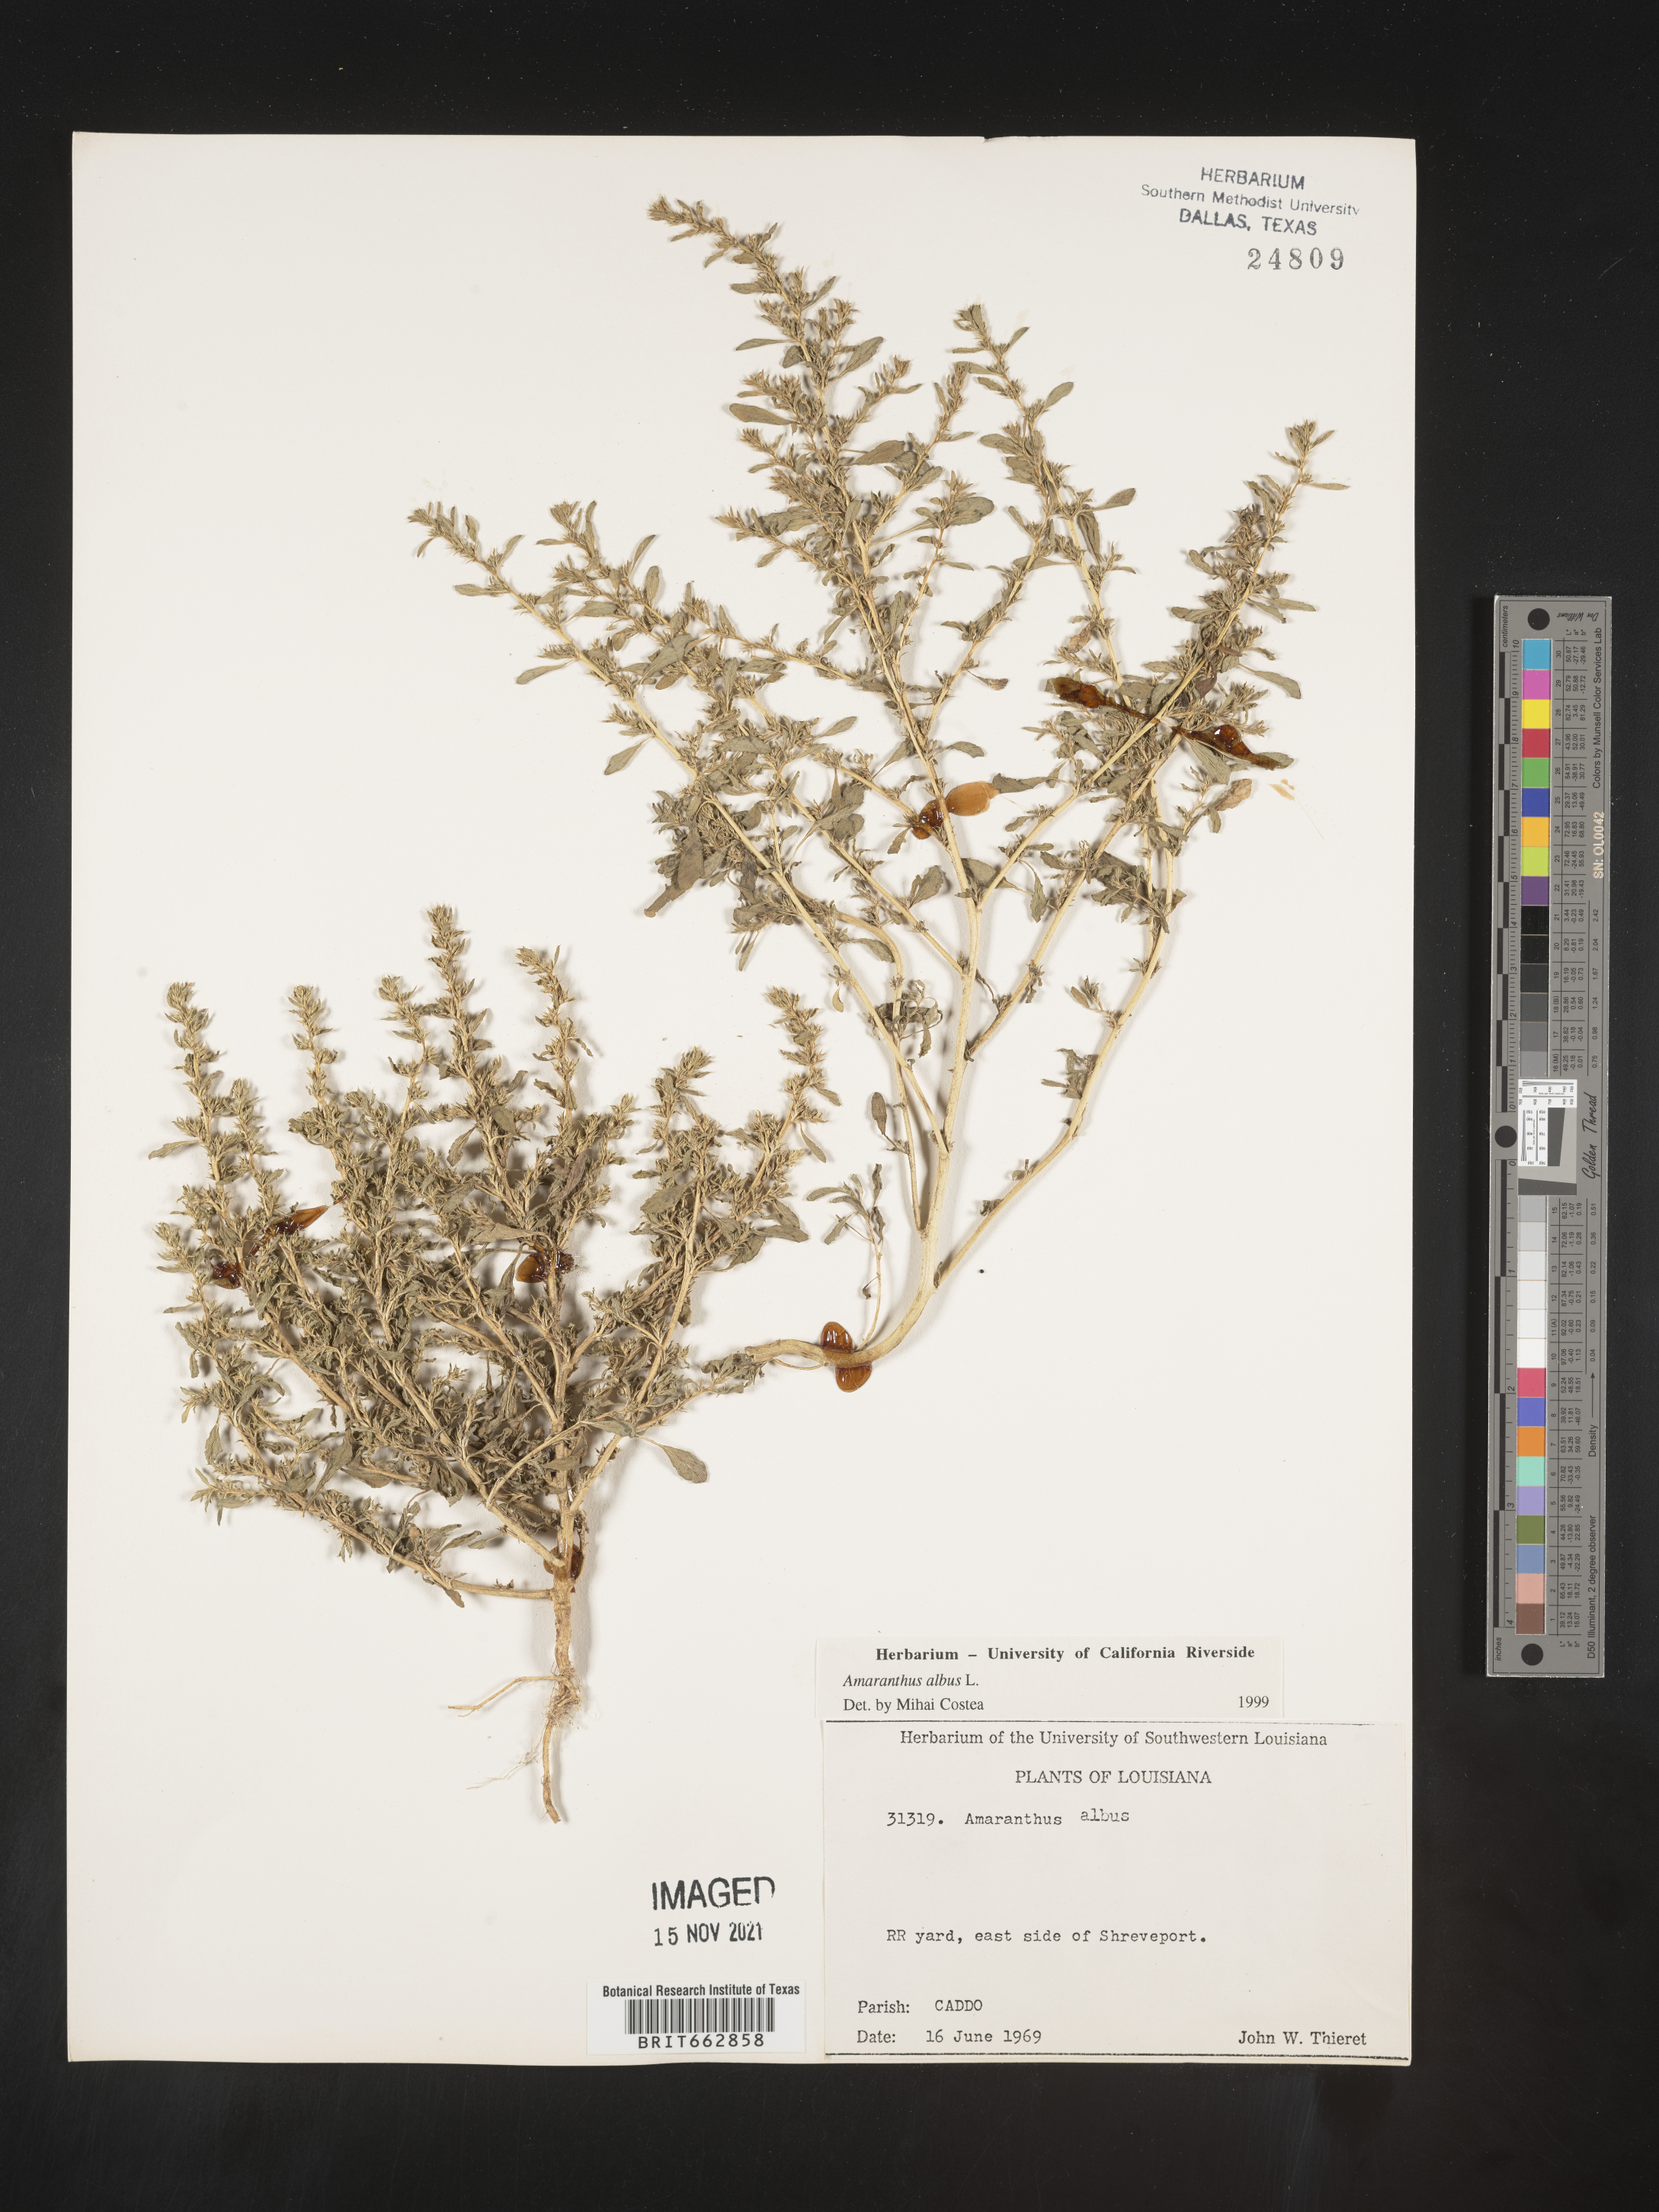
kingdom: Plantae
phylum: Tracheophyta
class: Magnoliopsida
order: Caryophyllales
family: Amaranthaceae
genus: Amaranthus
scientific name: Amaranthus albus
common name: White pigweed
